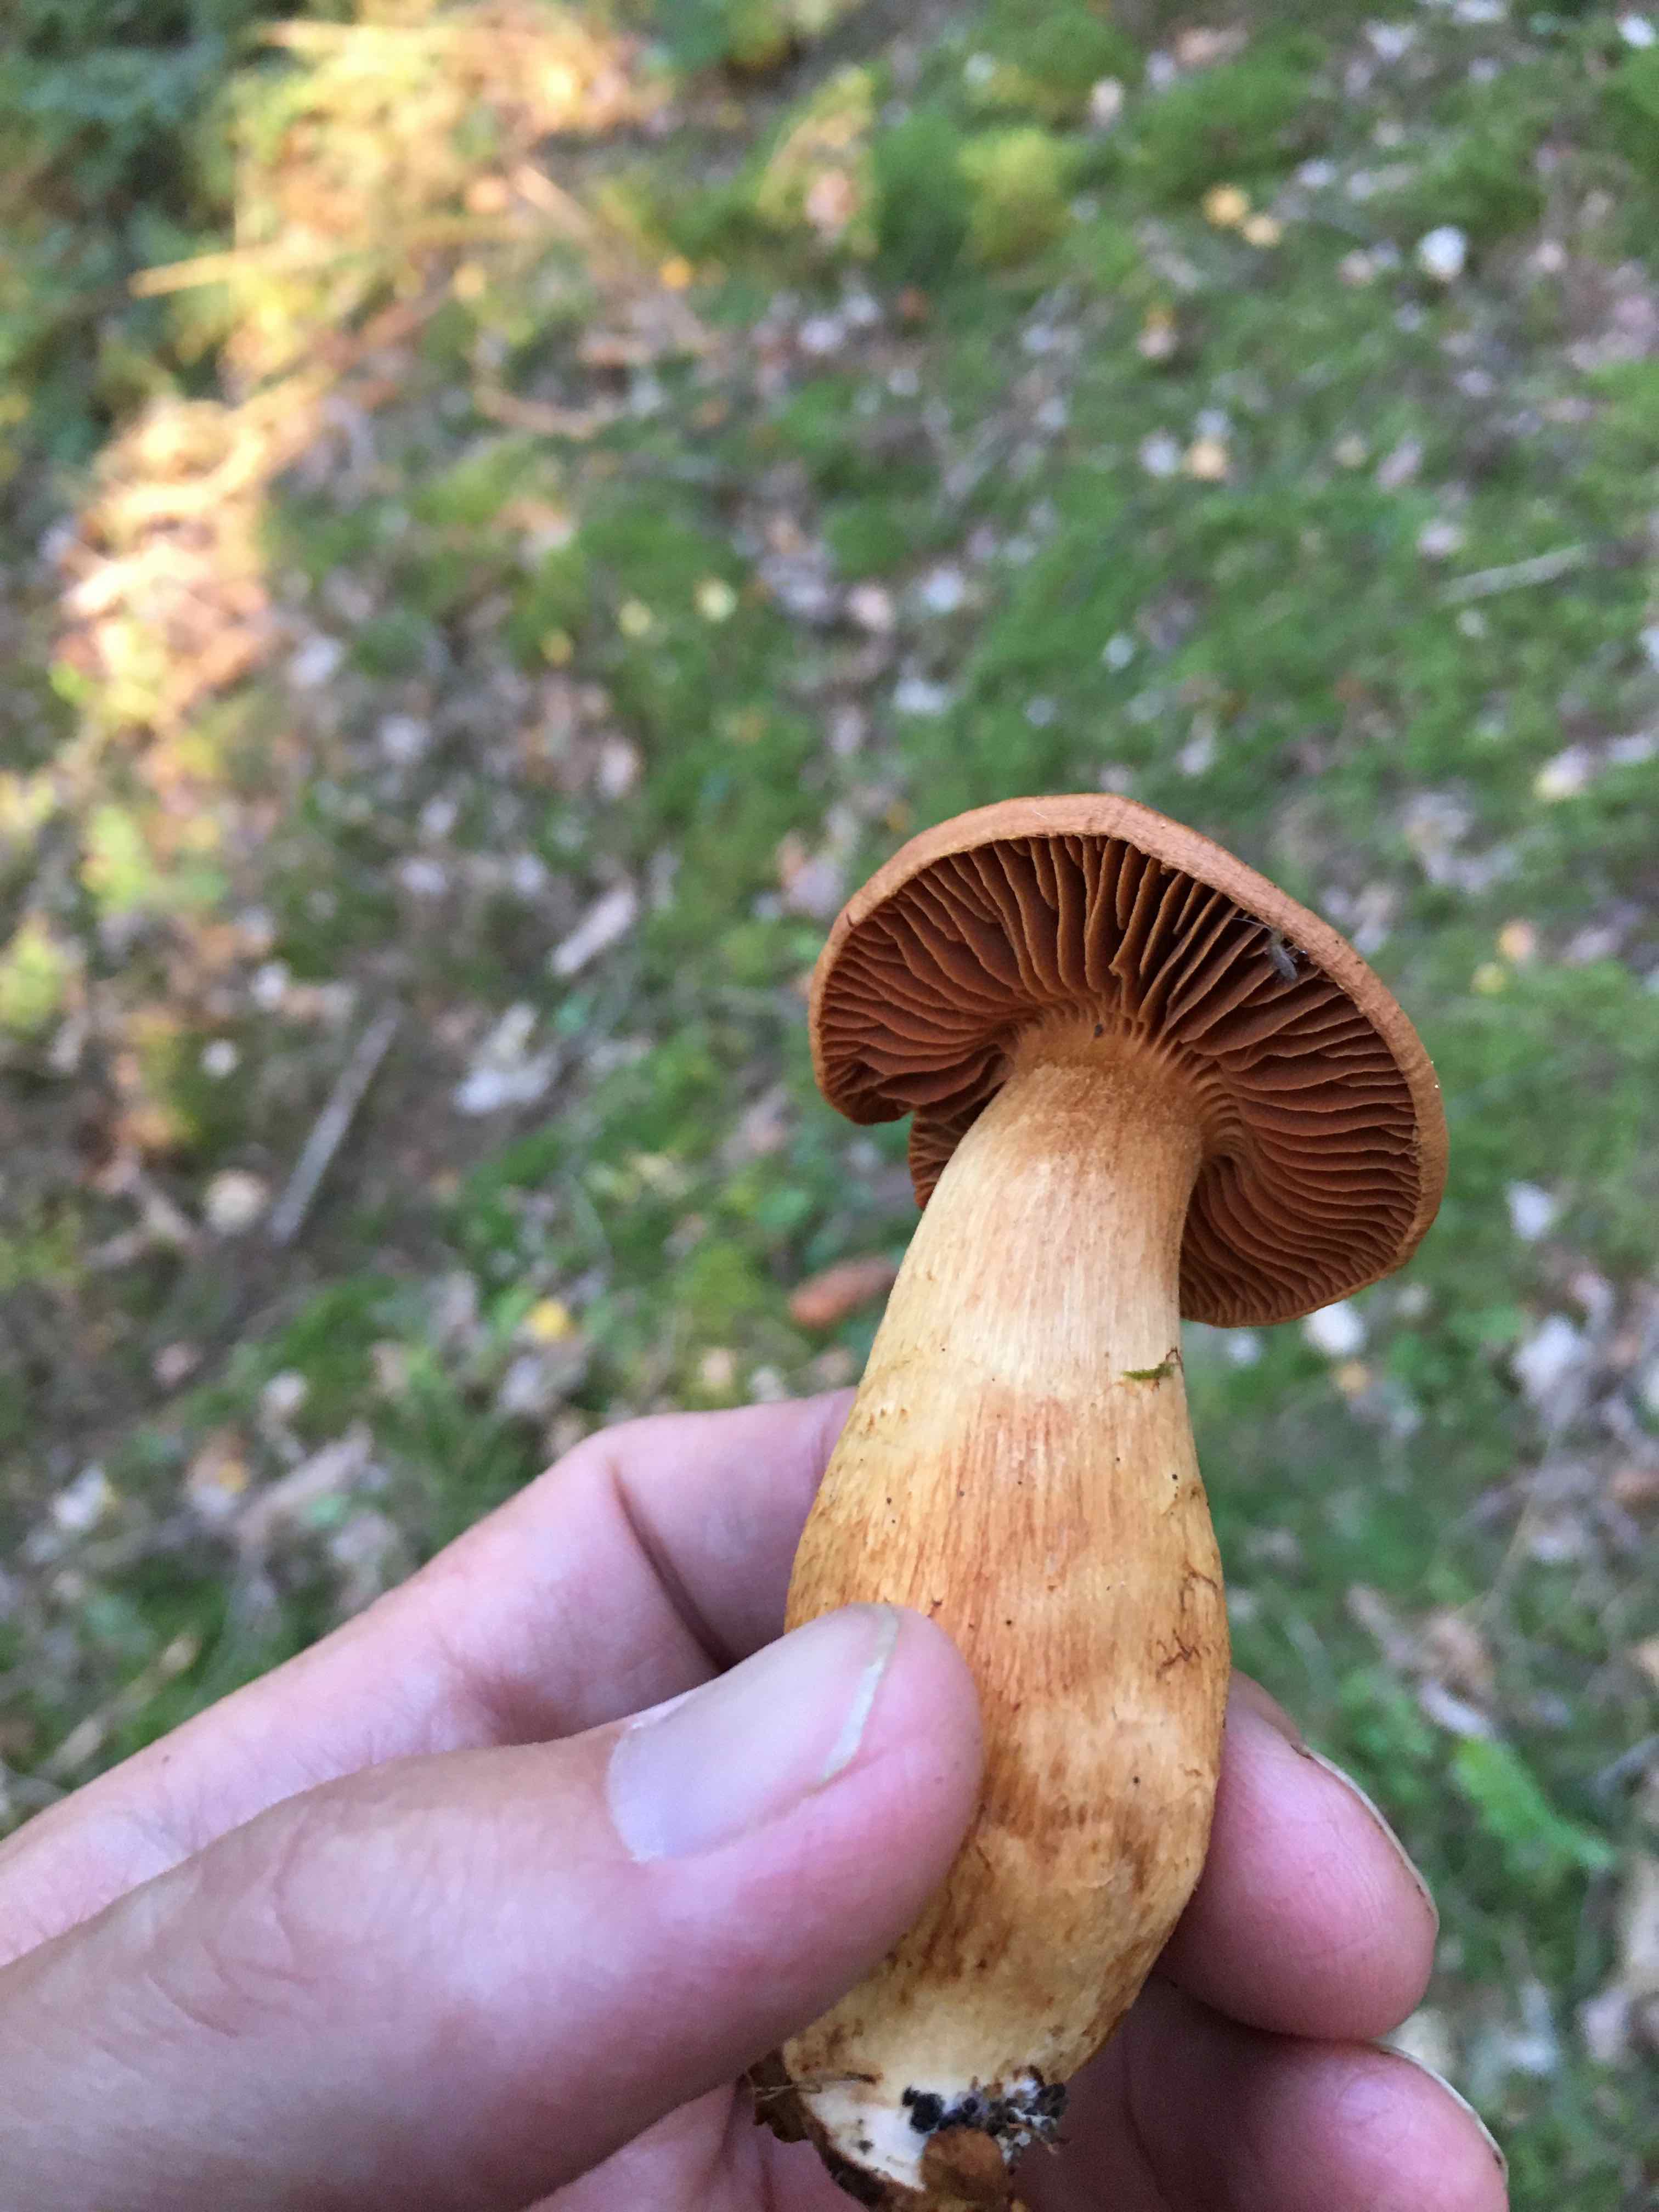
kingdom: Fungi
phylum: Basidiomycota
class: Agaricomycetes
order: Agaricales
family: Cortinariaceae
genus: Cortinarius
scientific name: Cortinarius rubellus
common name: puklet gift-slørhat
